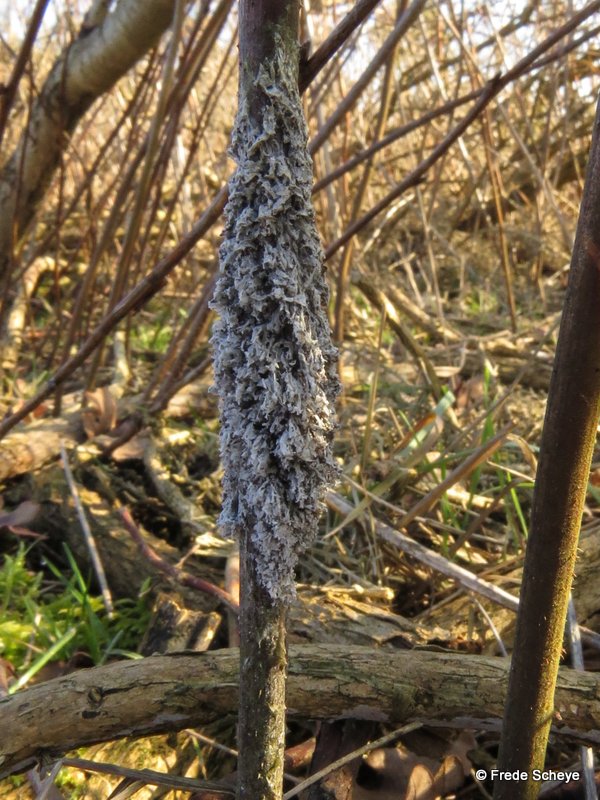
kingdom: Protozoa
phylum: Mycetozoa
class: Myxomycetes
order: Physarales
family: Physaraceae
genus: Didymium
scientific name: Didymium
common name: urteskum
